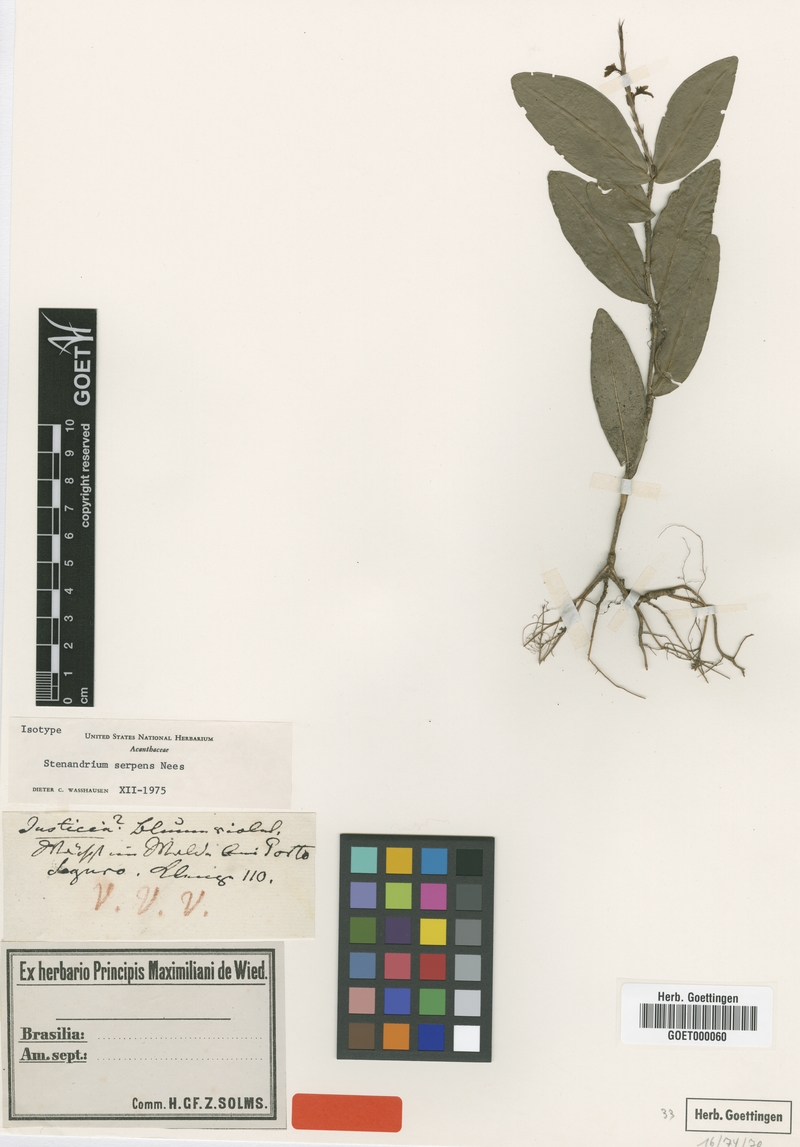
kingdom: Plantae
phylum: Tracheophyta
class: Magnoliopsida
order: Lamiales
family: Acanthaceae
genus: Stenandrium
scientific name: Stenandrium serpens
